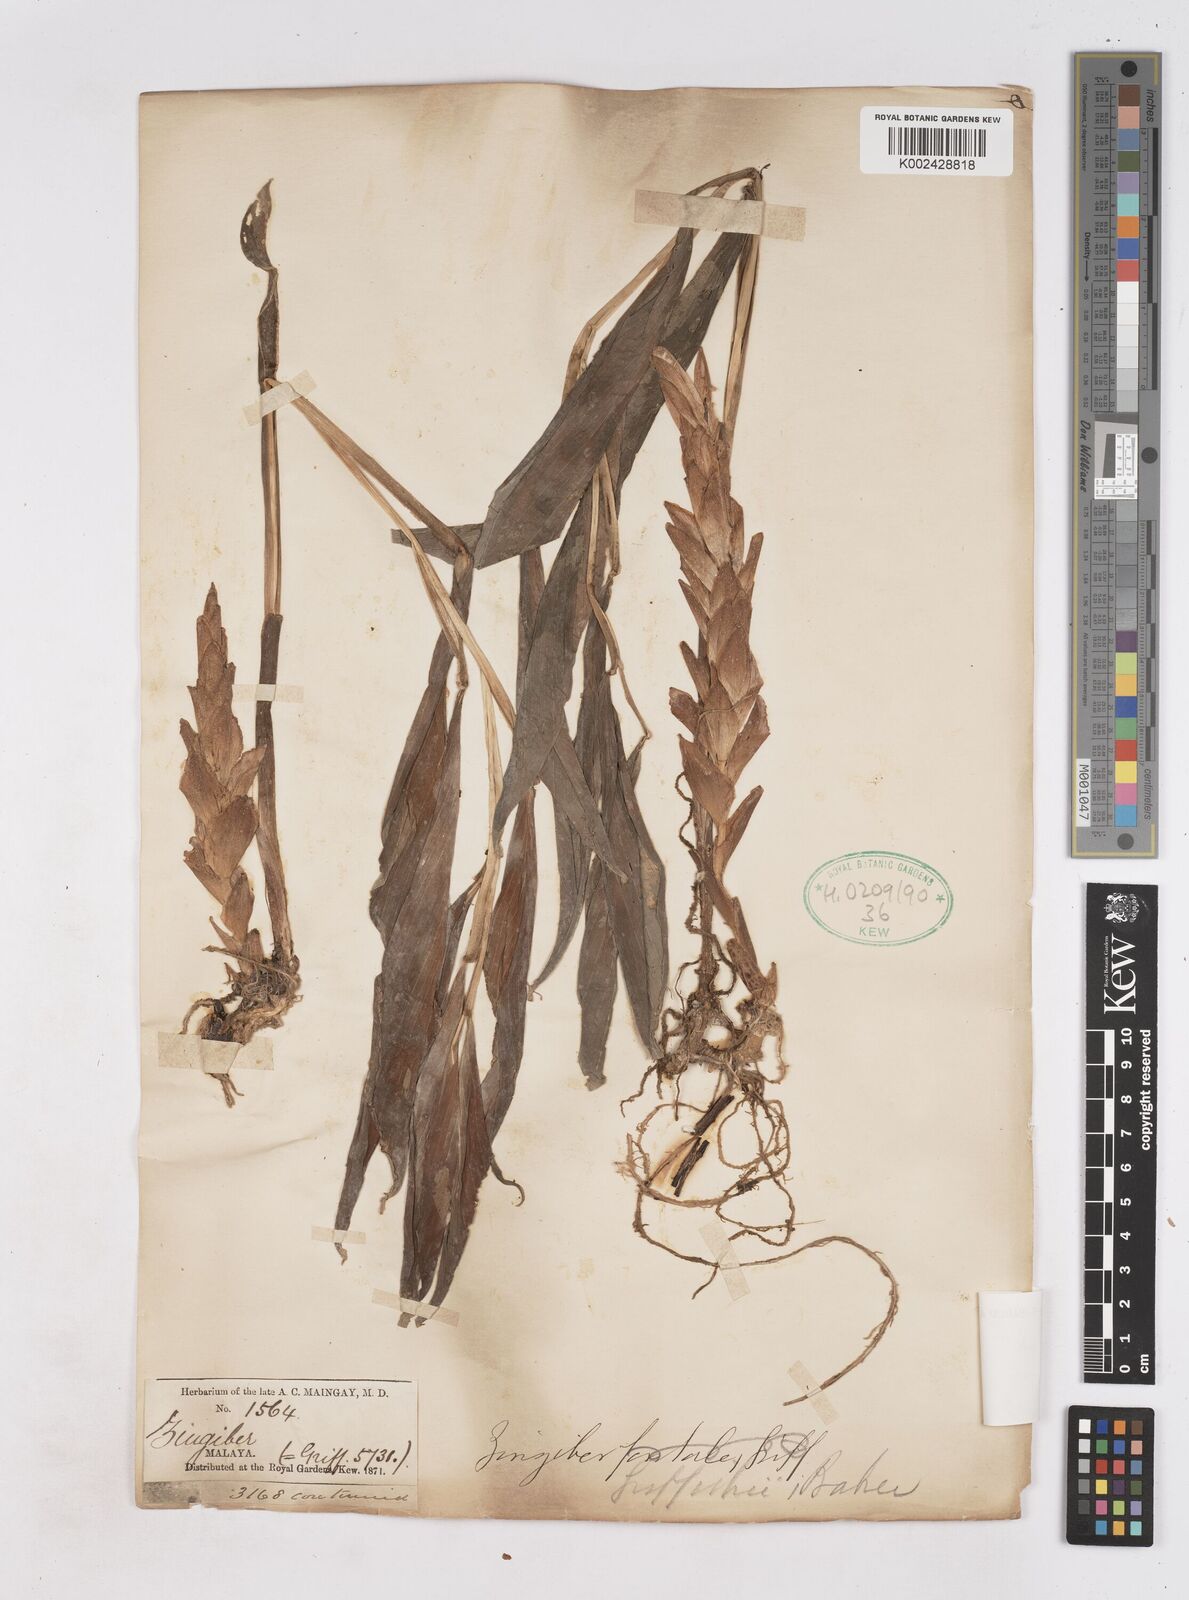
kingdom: Plantae
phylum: Tracheophyta
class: Liliopsida
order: Zingiberales
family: Zingiberaceae
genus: Zingiber
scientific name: Zingiber griffithii
